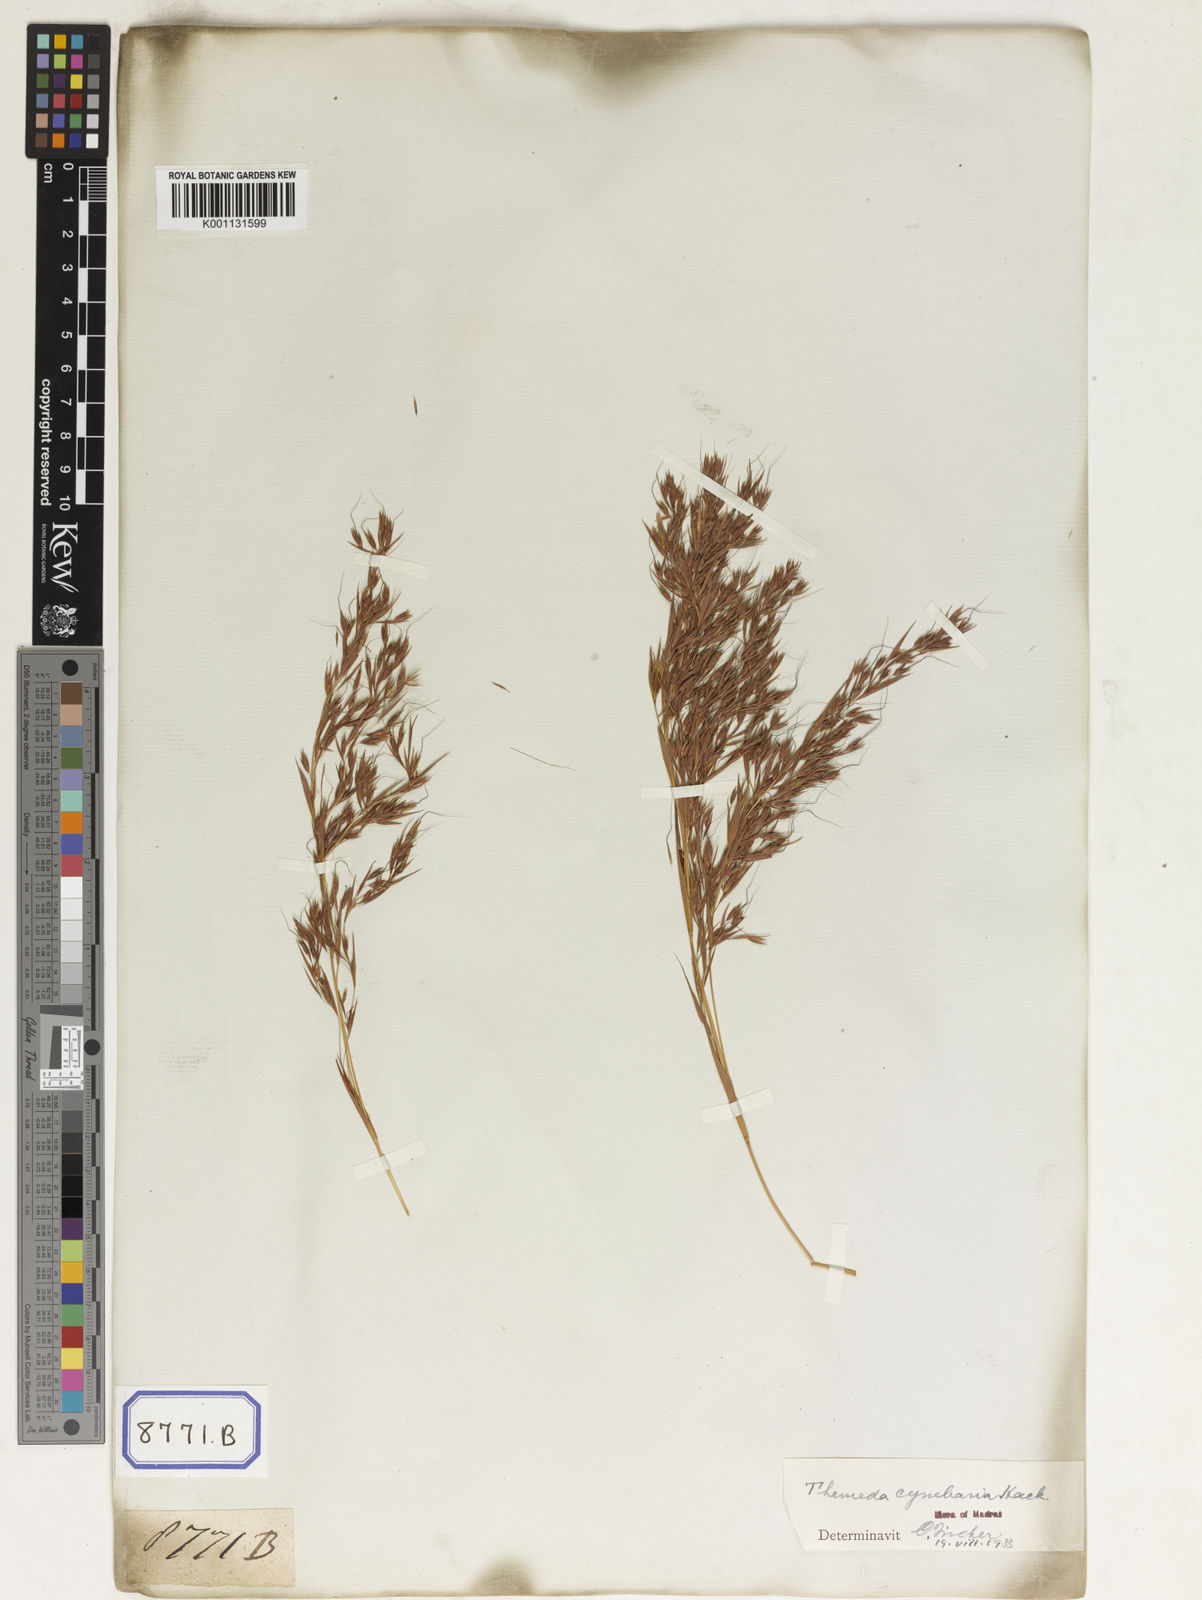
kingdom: Plantae
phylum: Tracheophyta
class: Liliopsida
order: Poales
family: Poaceae
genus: Themeda
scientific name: Themeda
